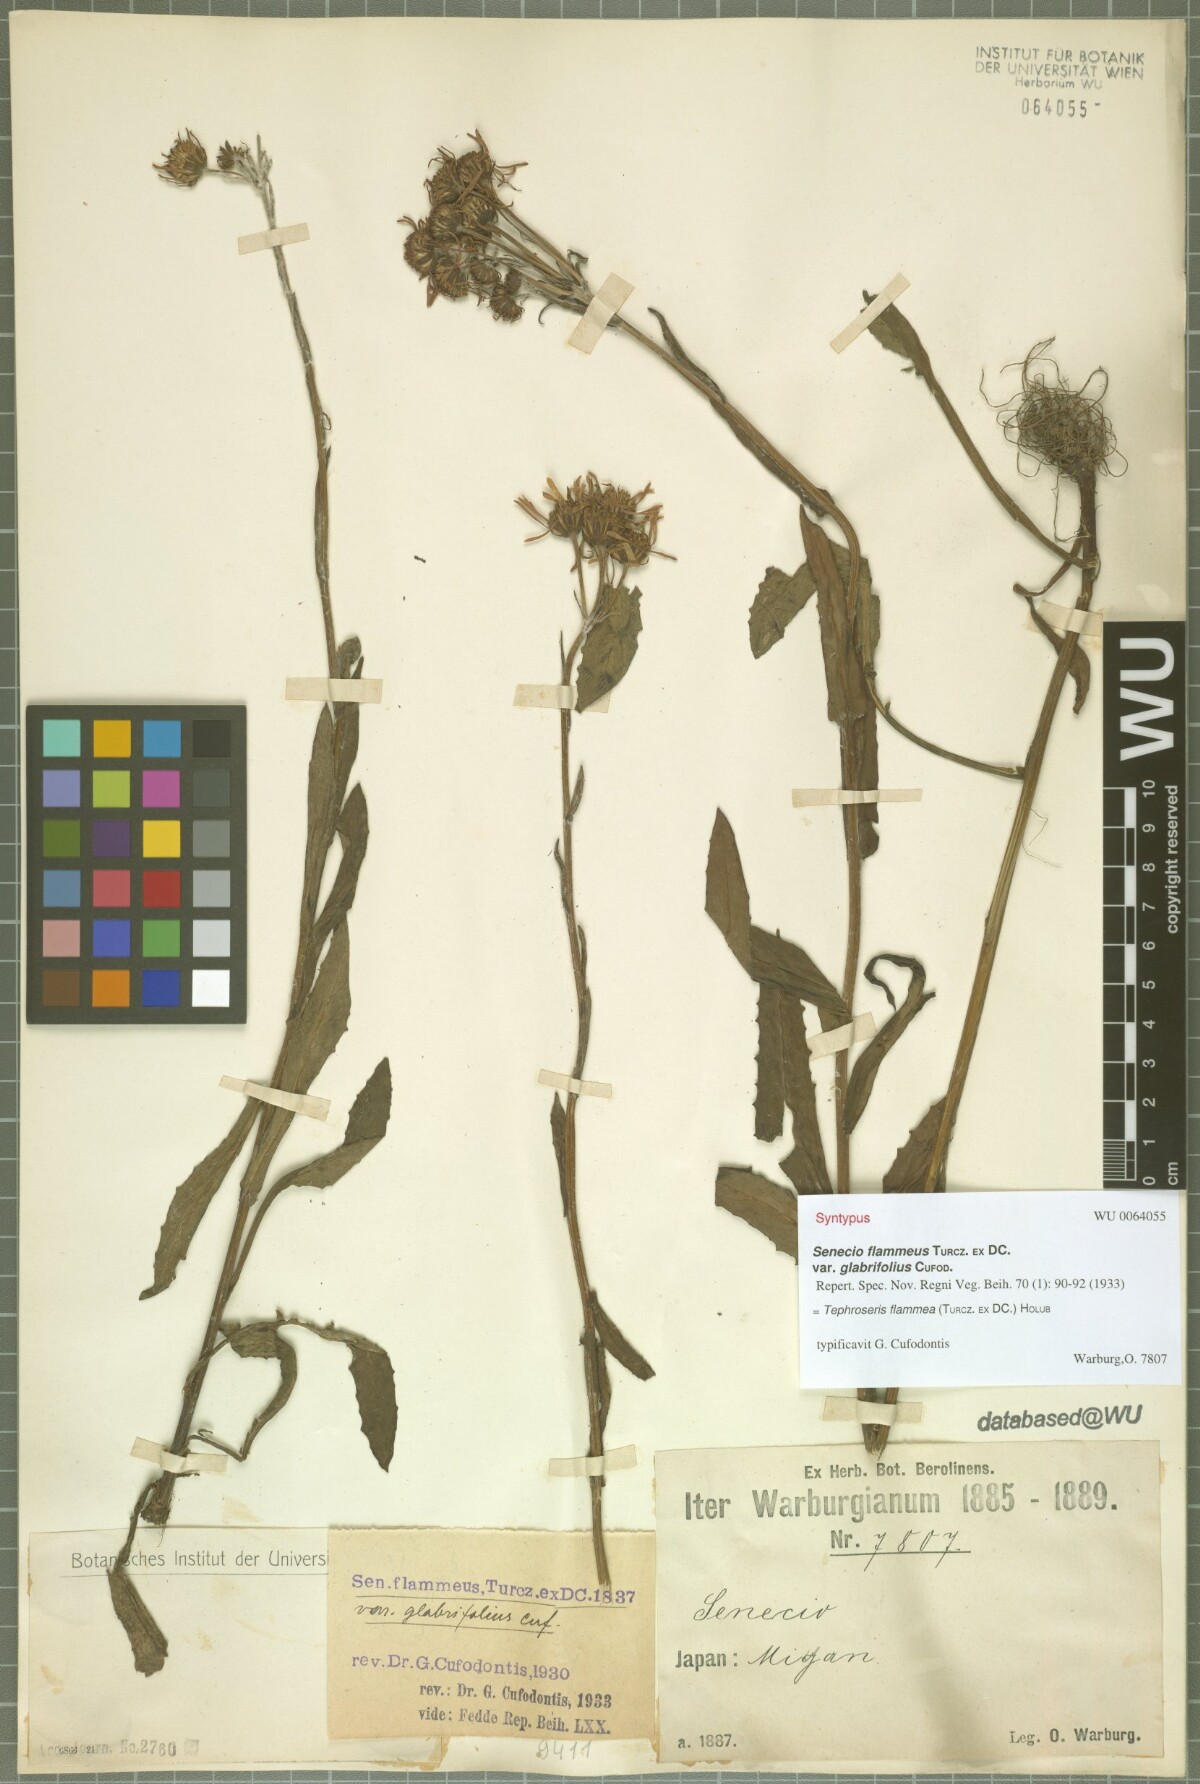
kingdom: Plantae
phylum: Tracheophyta
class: Magnoliopsida
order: Asterales
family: Asteraceae
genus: Tephroseris
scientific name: Tephroseris flammea
